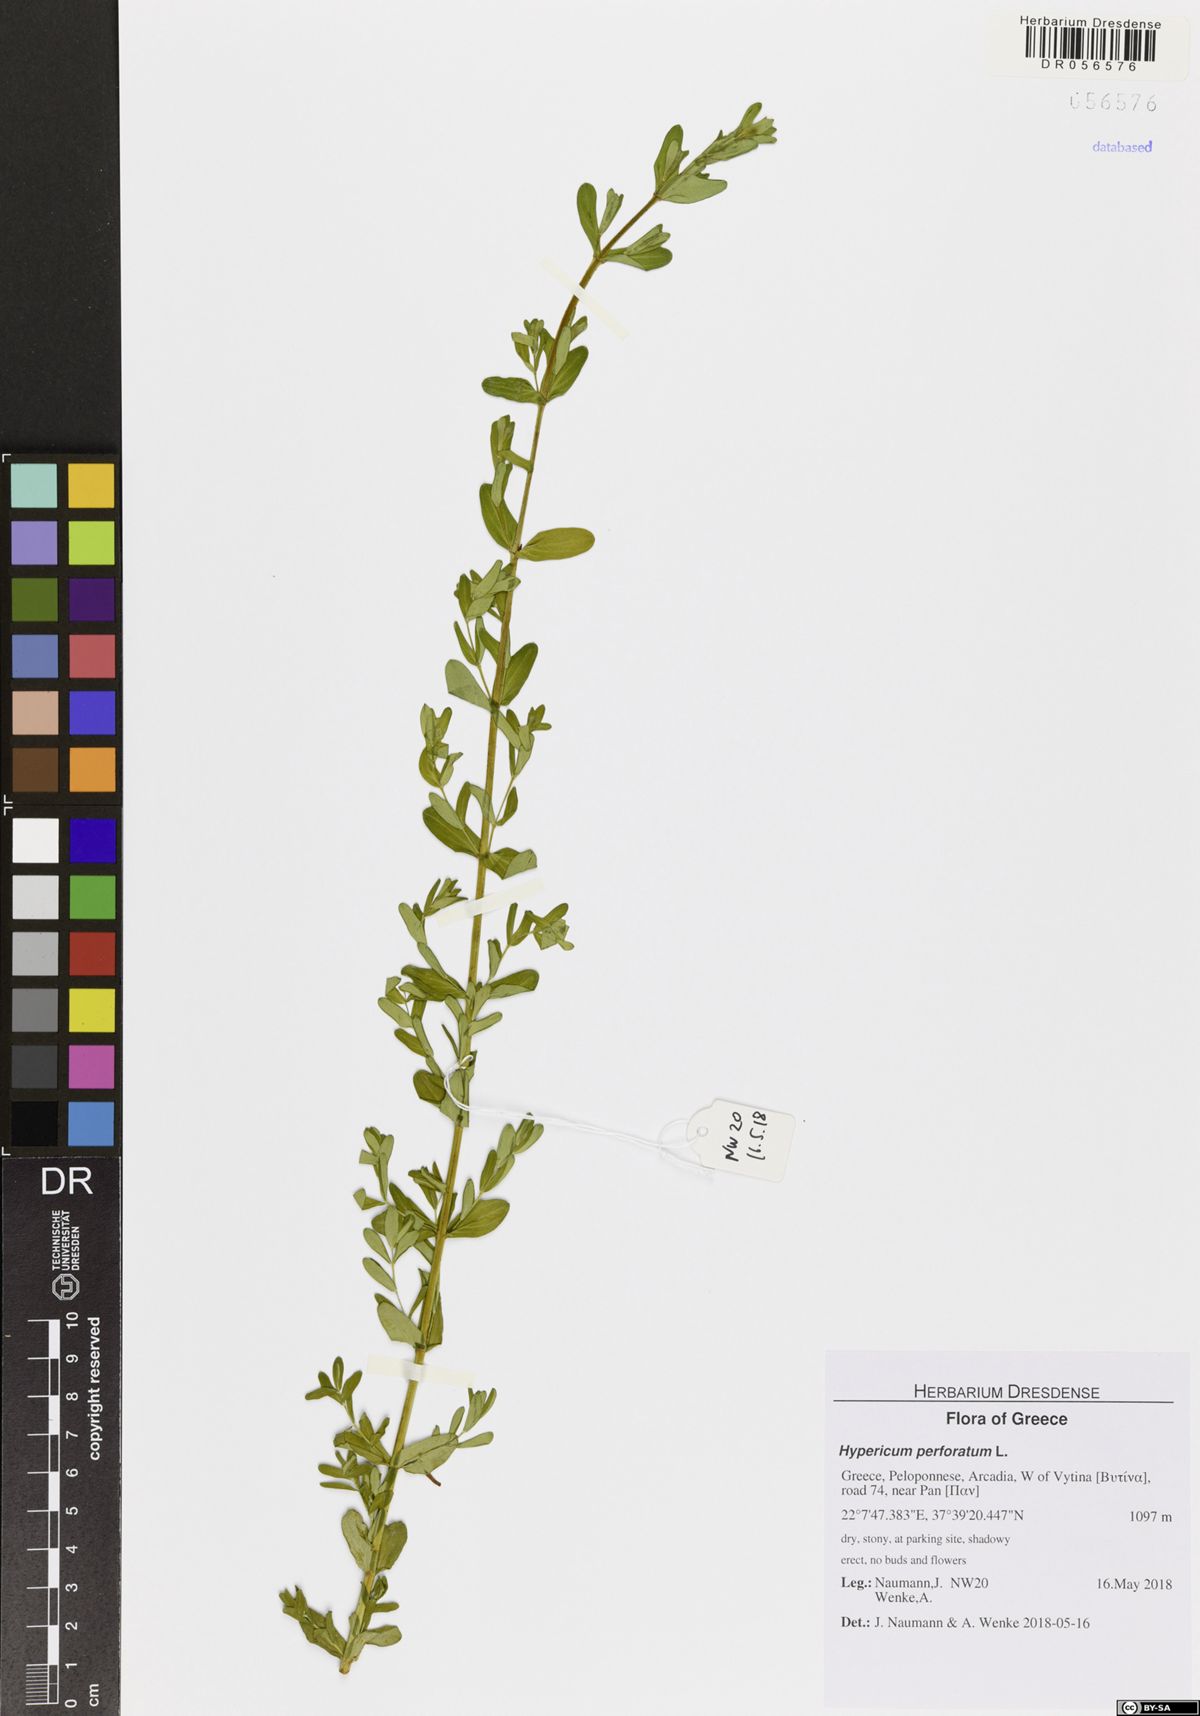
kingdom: Plantae
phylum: Tracheophyta
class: Magnoliopsida
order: Malpighiales
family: Hypericaceae
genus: Hypericum
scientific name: Hypericum perforatum
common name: Common st. johnswort
